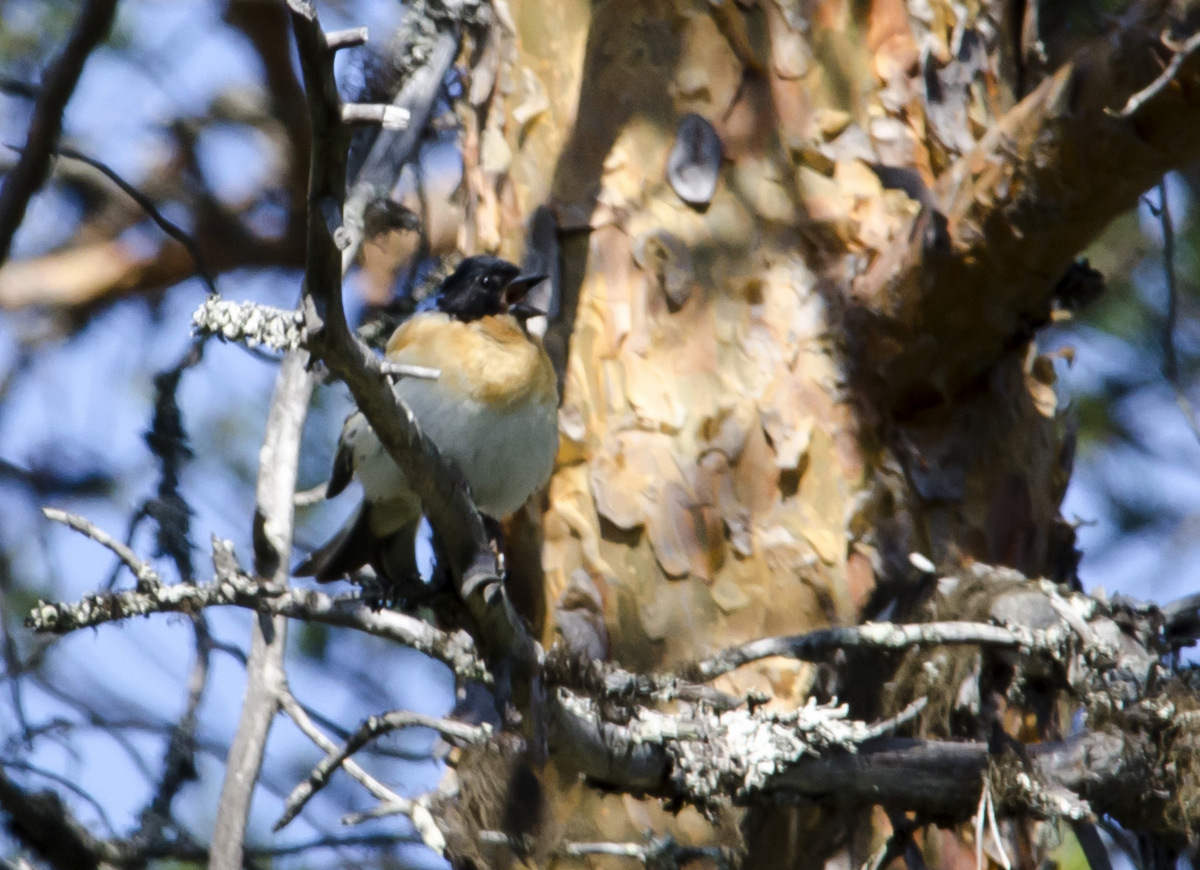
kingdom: Animalia
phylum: Chordata
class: Aves
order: Passeriformes
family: Fringillidae
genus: Fringilla
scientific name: Fringilla montifringilla
